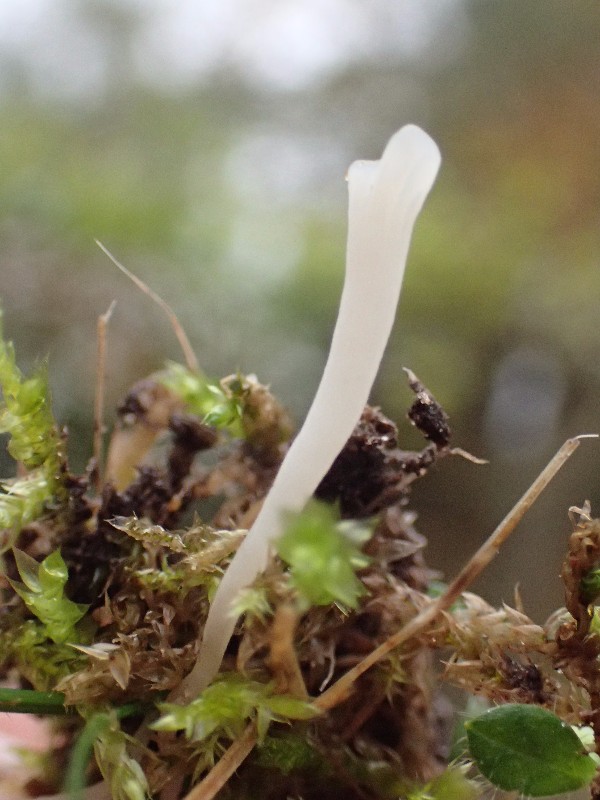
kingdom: Fungi
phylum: Basidiomycota
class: Agaricomycetes
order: Agaricales
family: Clavariaceae
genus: Clavaria
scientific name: Clavaria
